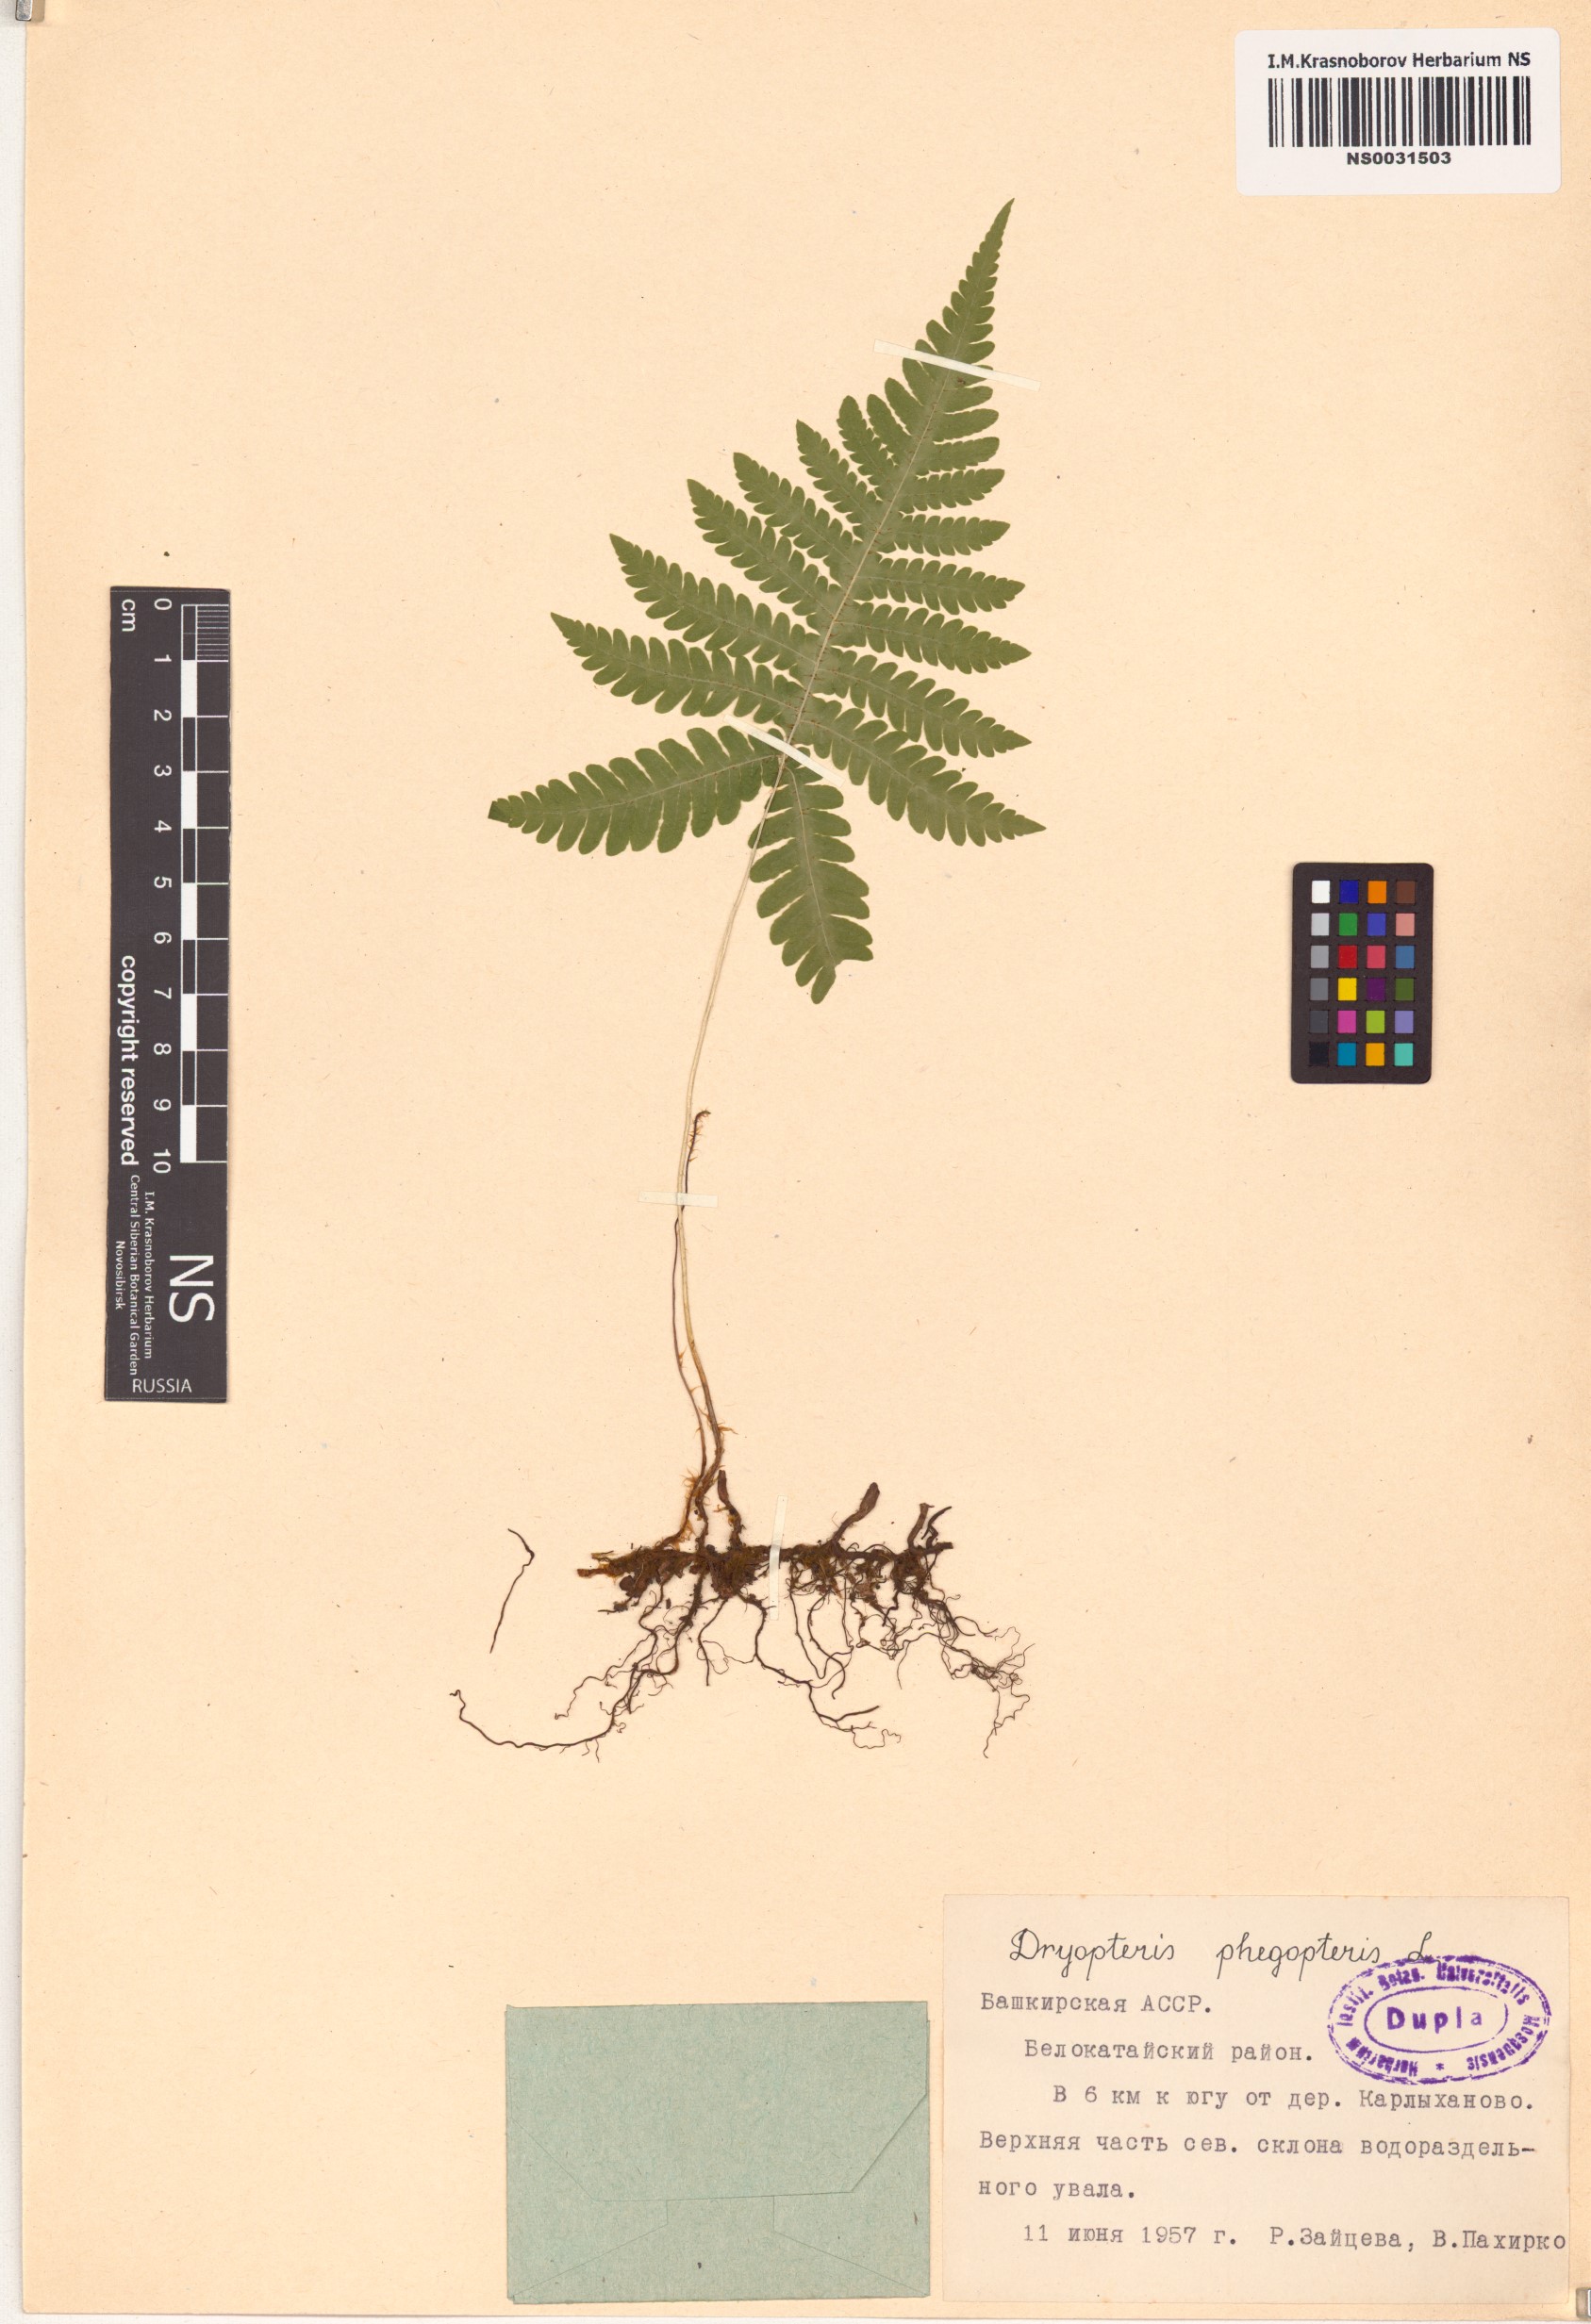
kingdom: Plantae
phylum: Tracheophyta
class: Polypodiopsida
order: Polypodiales
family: Thelypteridaceae
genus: Phegopteris
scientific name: Phegopteris connectilis
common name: Beech fern
